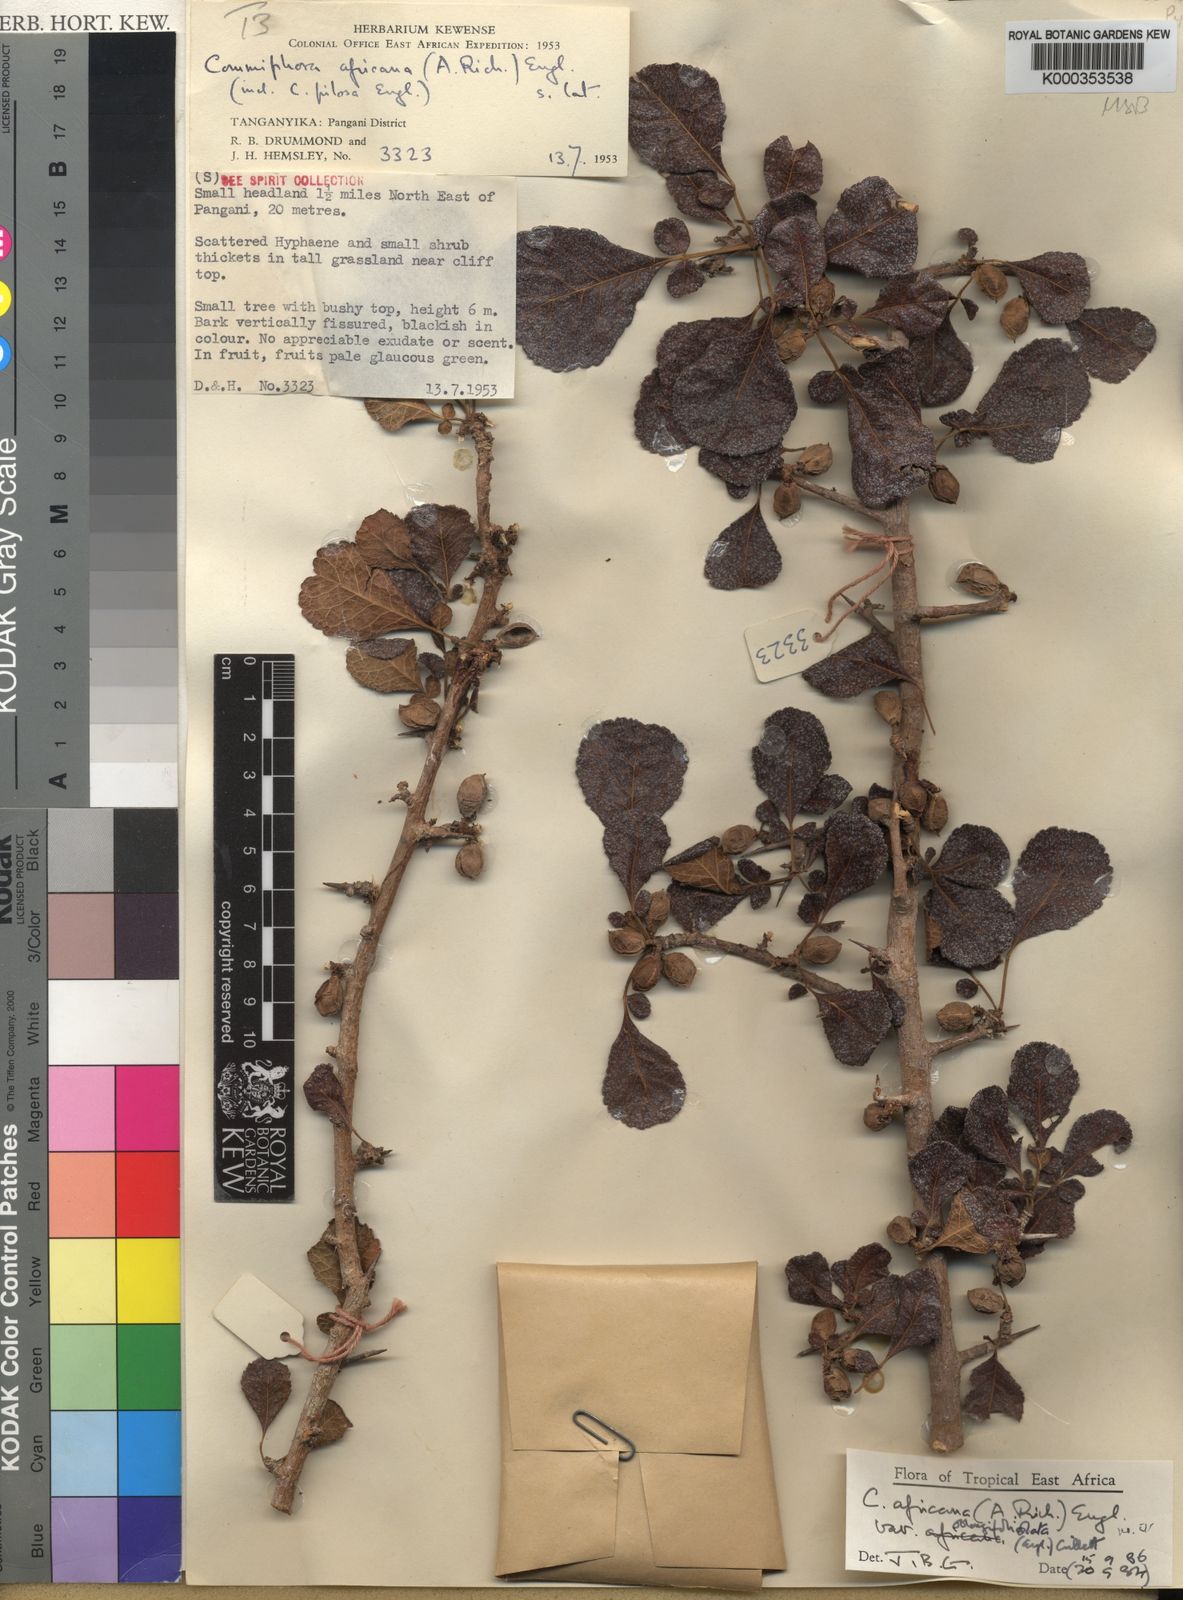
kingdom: Plantae
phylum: Tracheophyta
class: Magnoliopsida
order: Sapindales
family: Burseraceae
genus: Commiphora
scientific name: Commiphora africana
